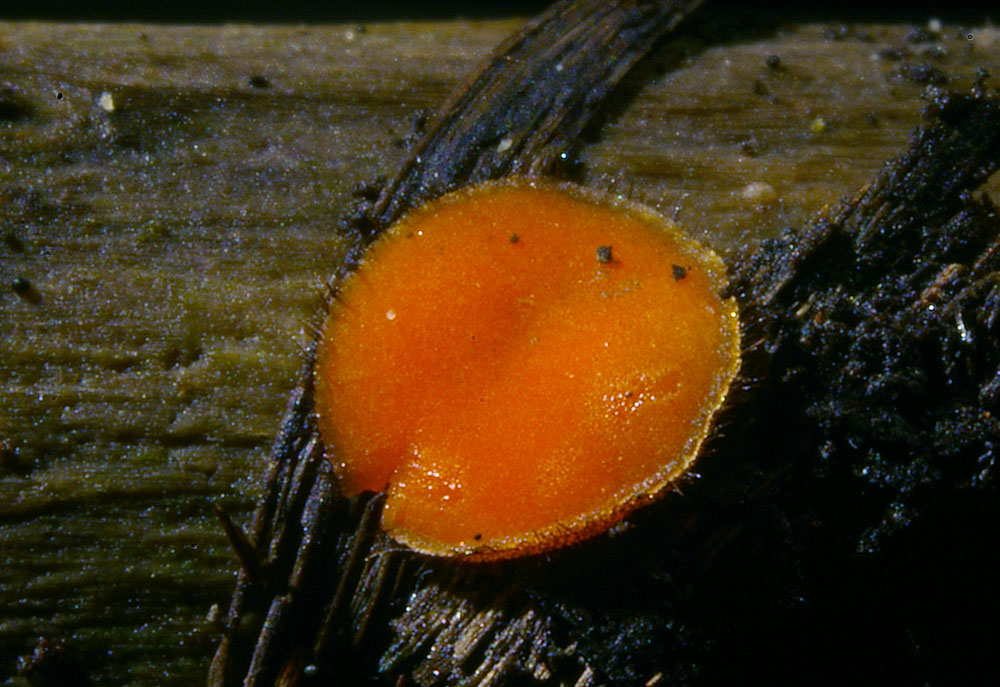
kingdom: Fungi
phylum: Ascomycota
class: Pezizomycetes
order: Pezizales
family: Pyronemataceae
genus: Scutellinia
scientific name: Scutellinia kerguelensis
